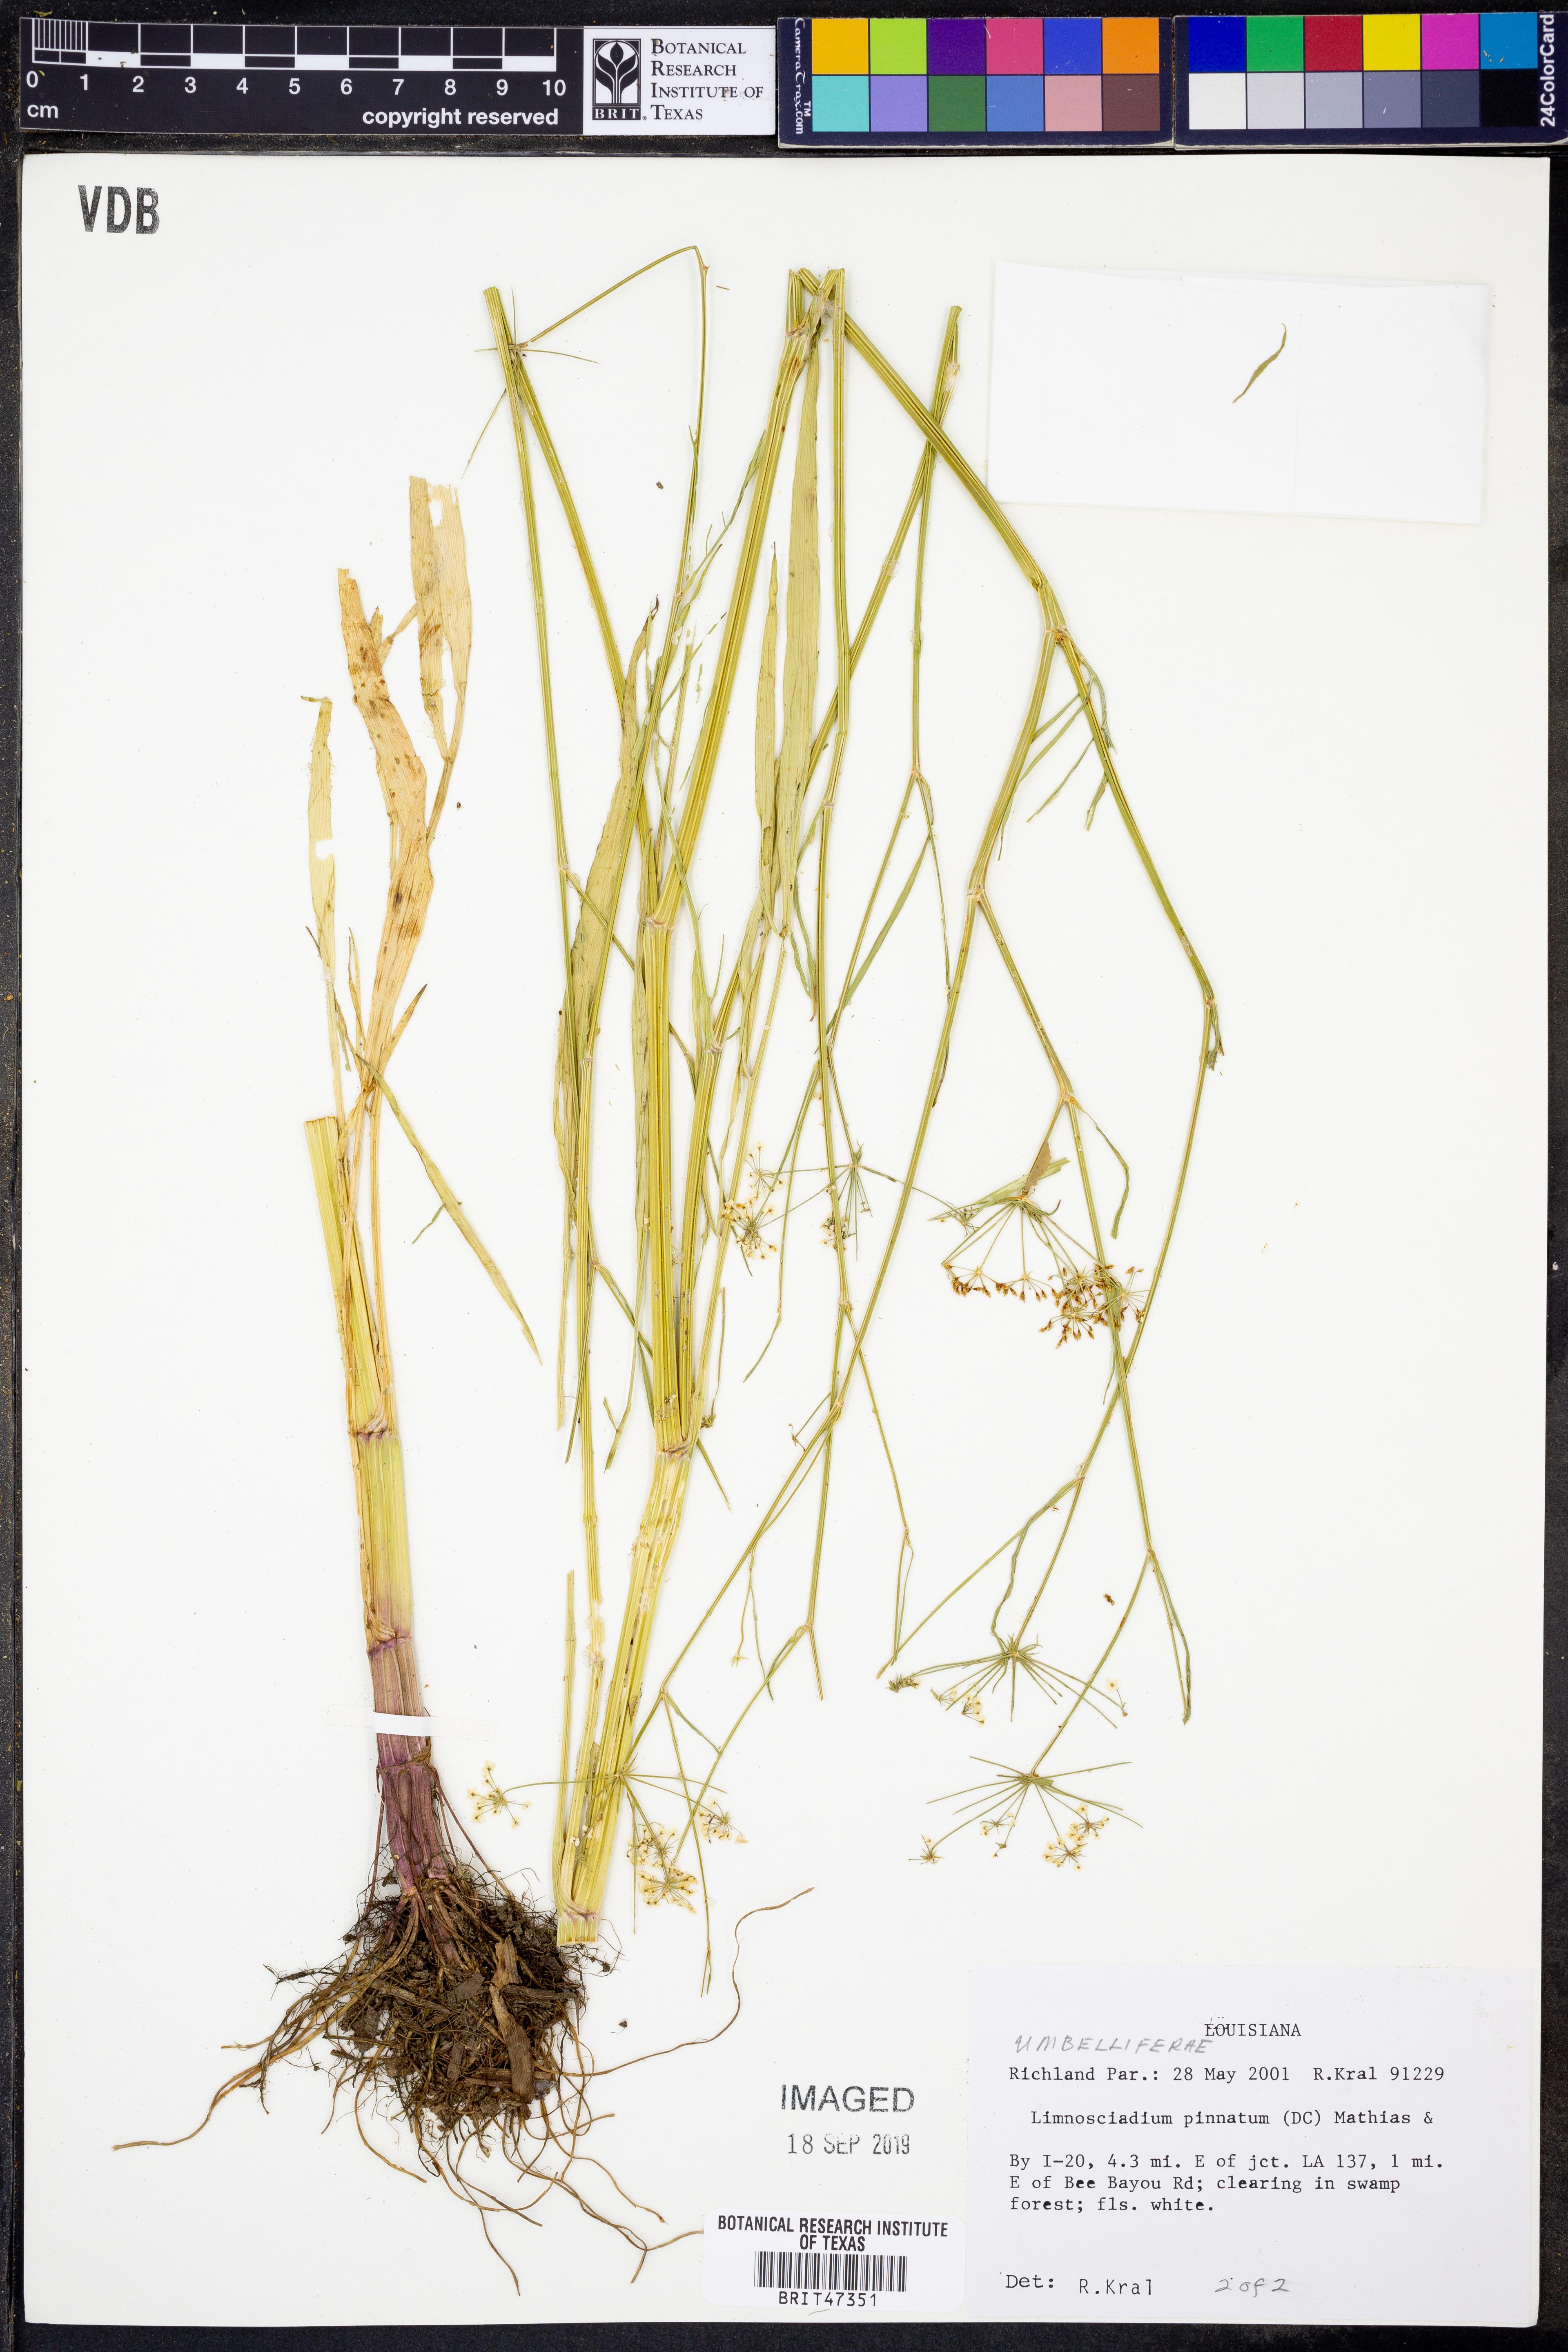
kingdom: Plantae
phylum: Tracheophyta
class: Magnoliopsida
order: Apiales
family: Apiaceae
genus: Limnosciadium
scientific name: Limnosciadium pinnatum
